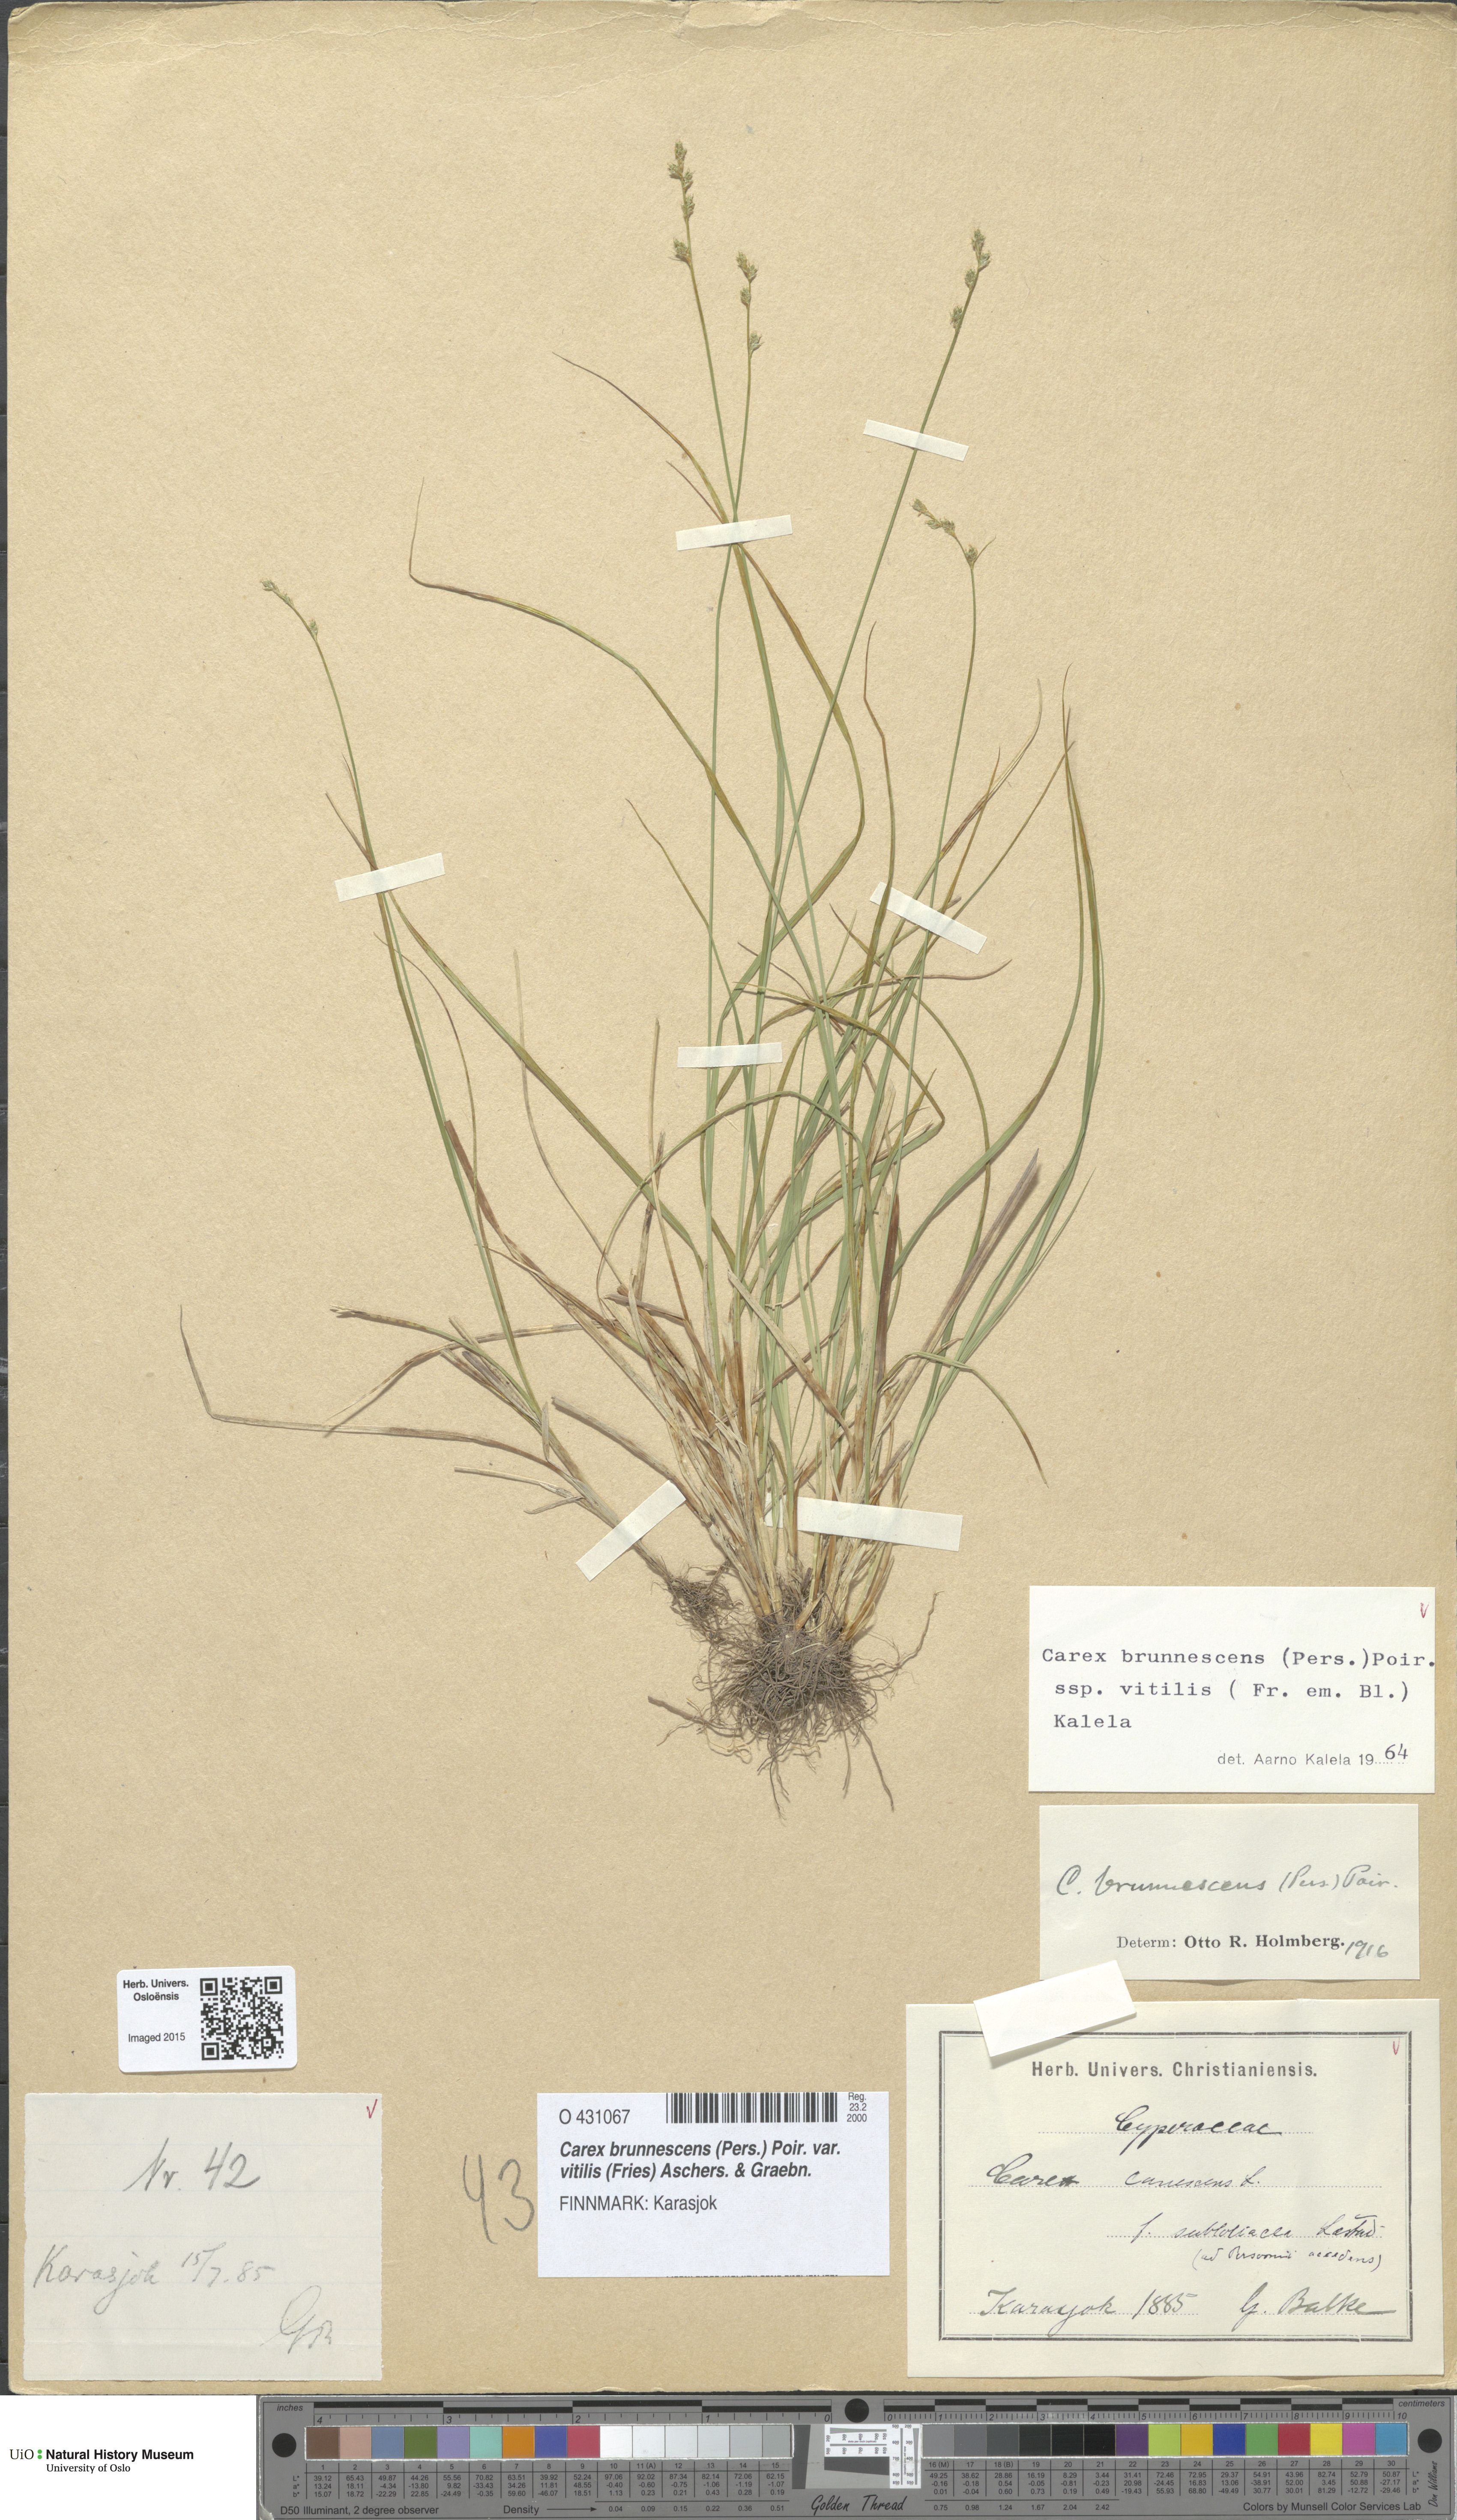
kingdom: Plantae
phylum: Tracheophyta
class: Liliopsida
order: Poales
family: Cyperaceae
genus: Carex
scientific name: Carex brunnescens
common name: Brown sedge
